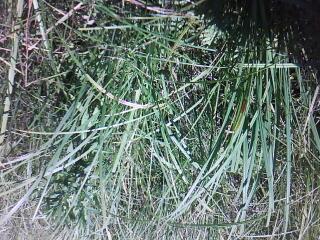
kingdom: Plantae
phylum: Tracheophyta
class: Magnoliopsida
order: Caryophyllales
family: Polygonaceae
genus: Persicaria
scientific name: Persicaria amphibia
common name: Amphibious bistort
